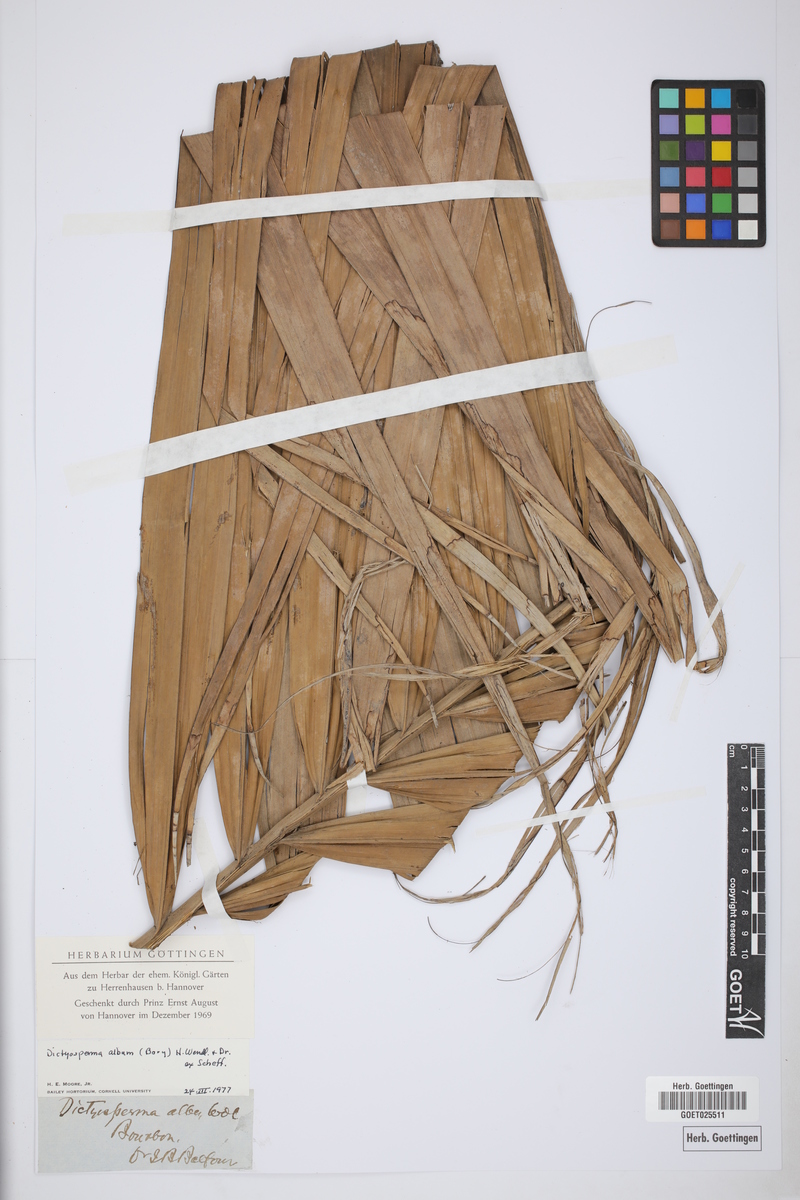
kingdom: Plantae
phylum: Tracheophyta
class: Liliopsida
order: Arecales
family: Arecaceae
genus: Dictyosperma
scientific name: Dictyosperma album
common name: Common princess palm
